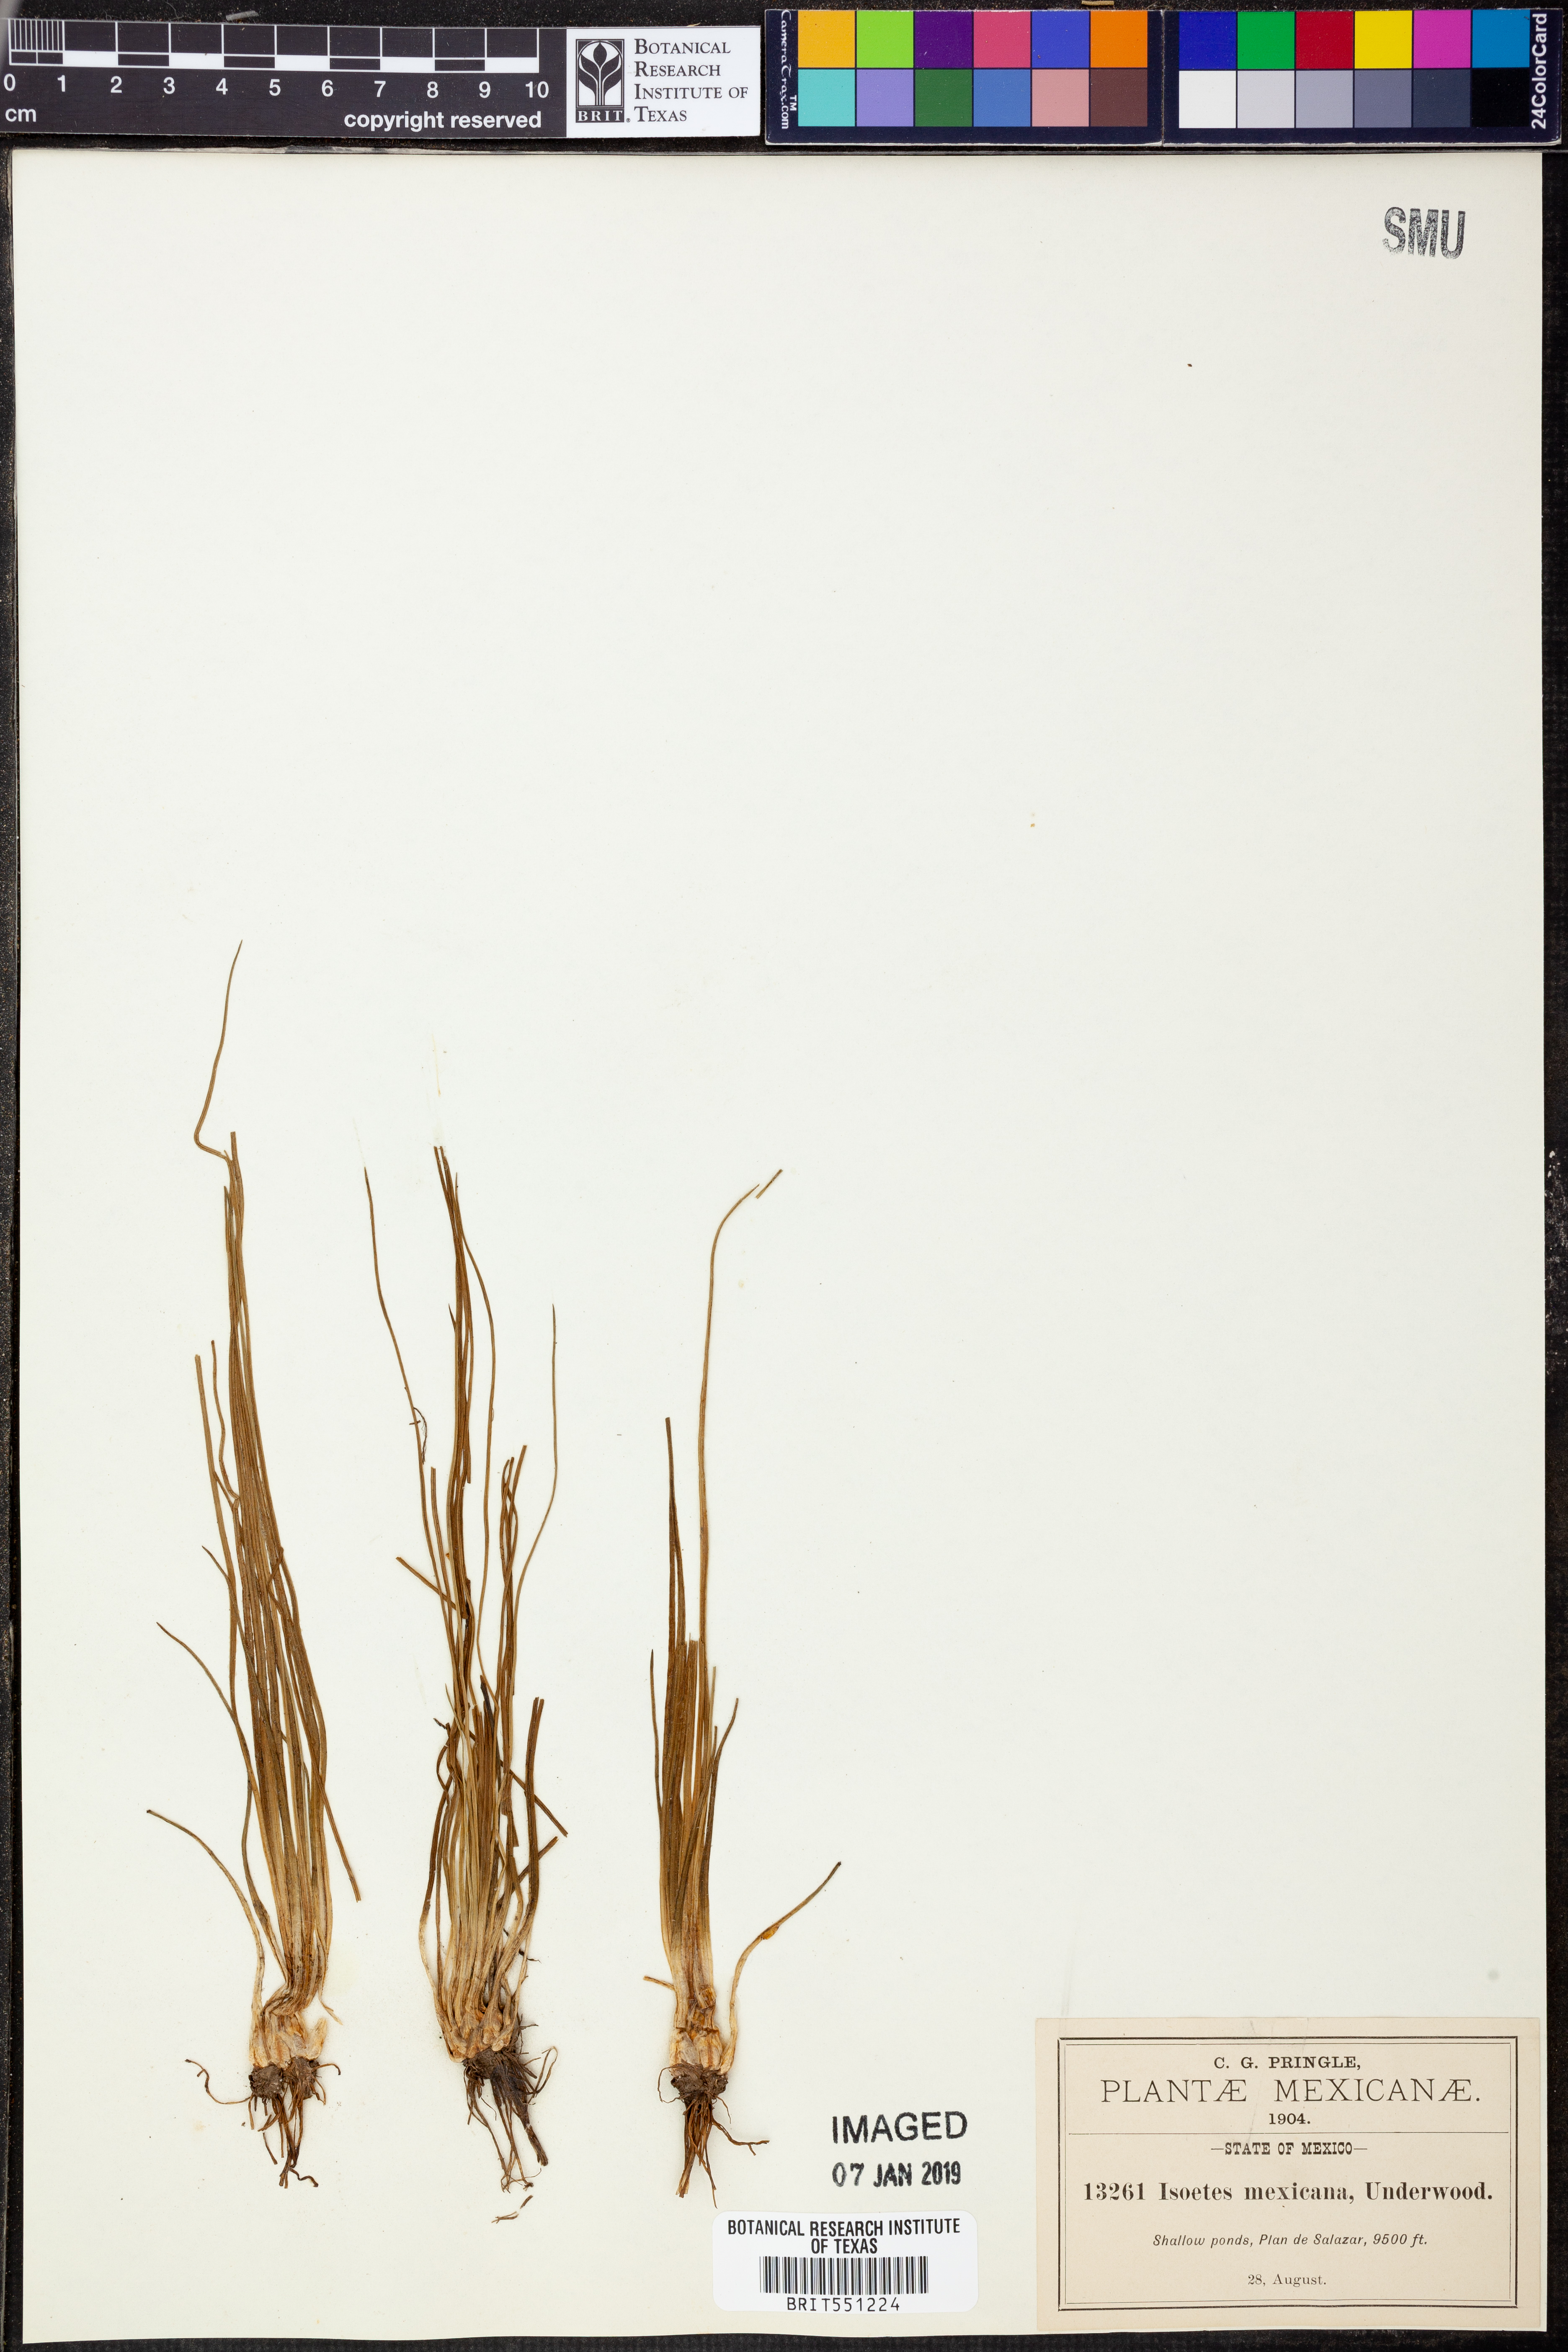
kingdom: Plantae
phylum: Tracheophyta
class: Lycopodiopsida
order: Isoetales
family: Isoetaceae
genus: Isoetes
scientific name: Isoetes mexicana
